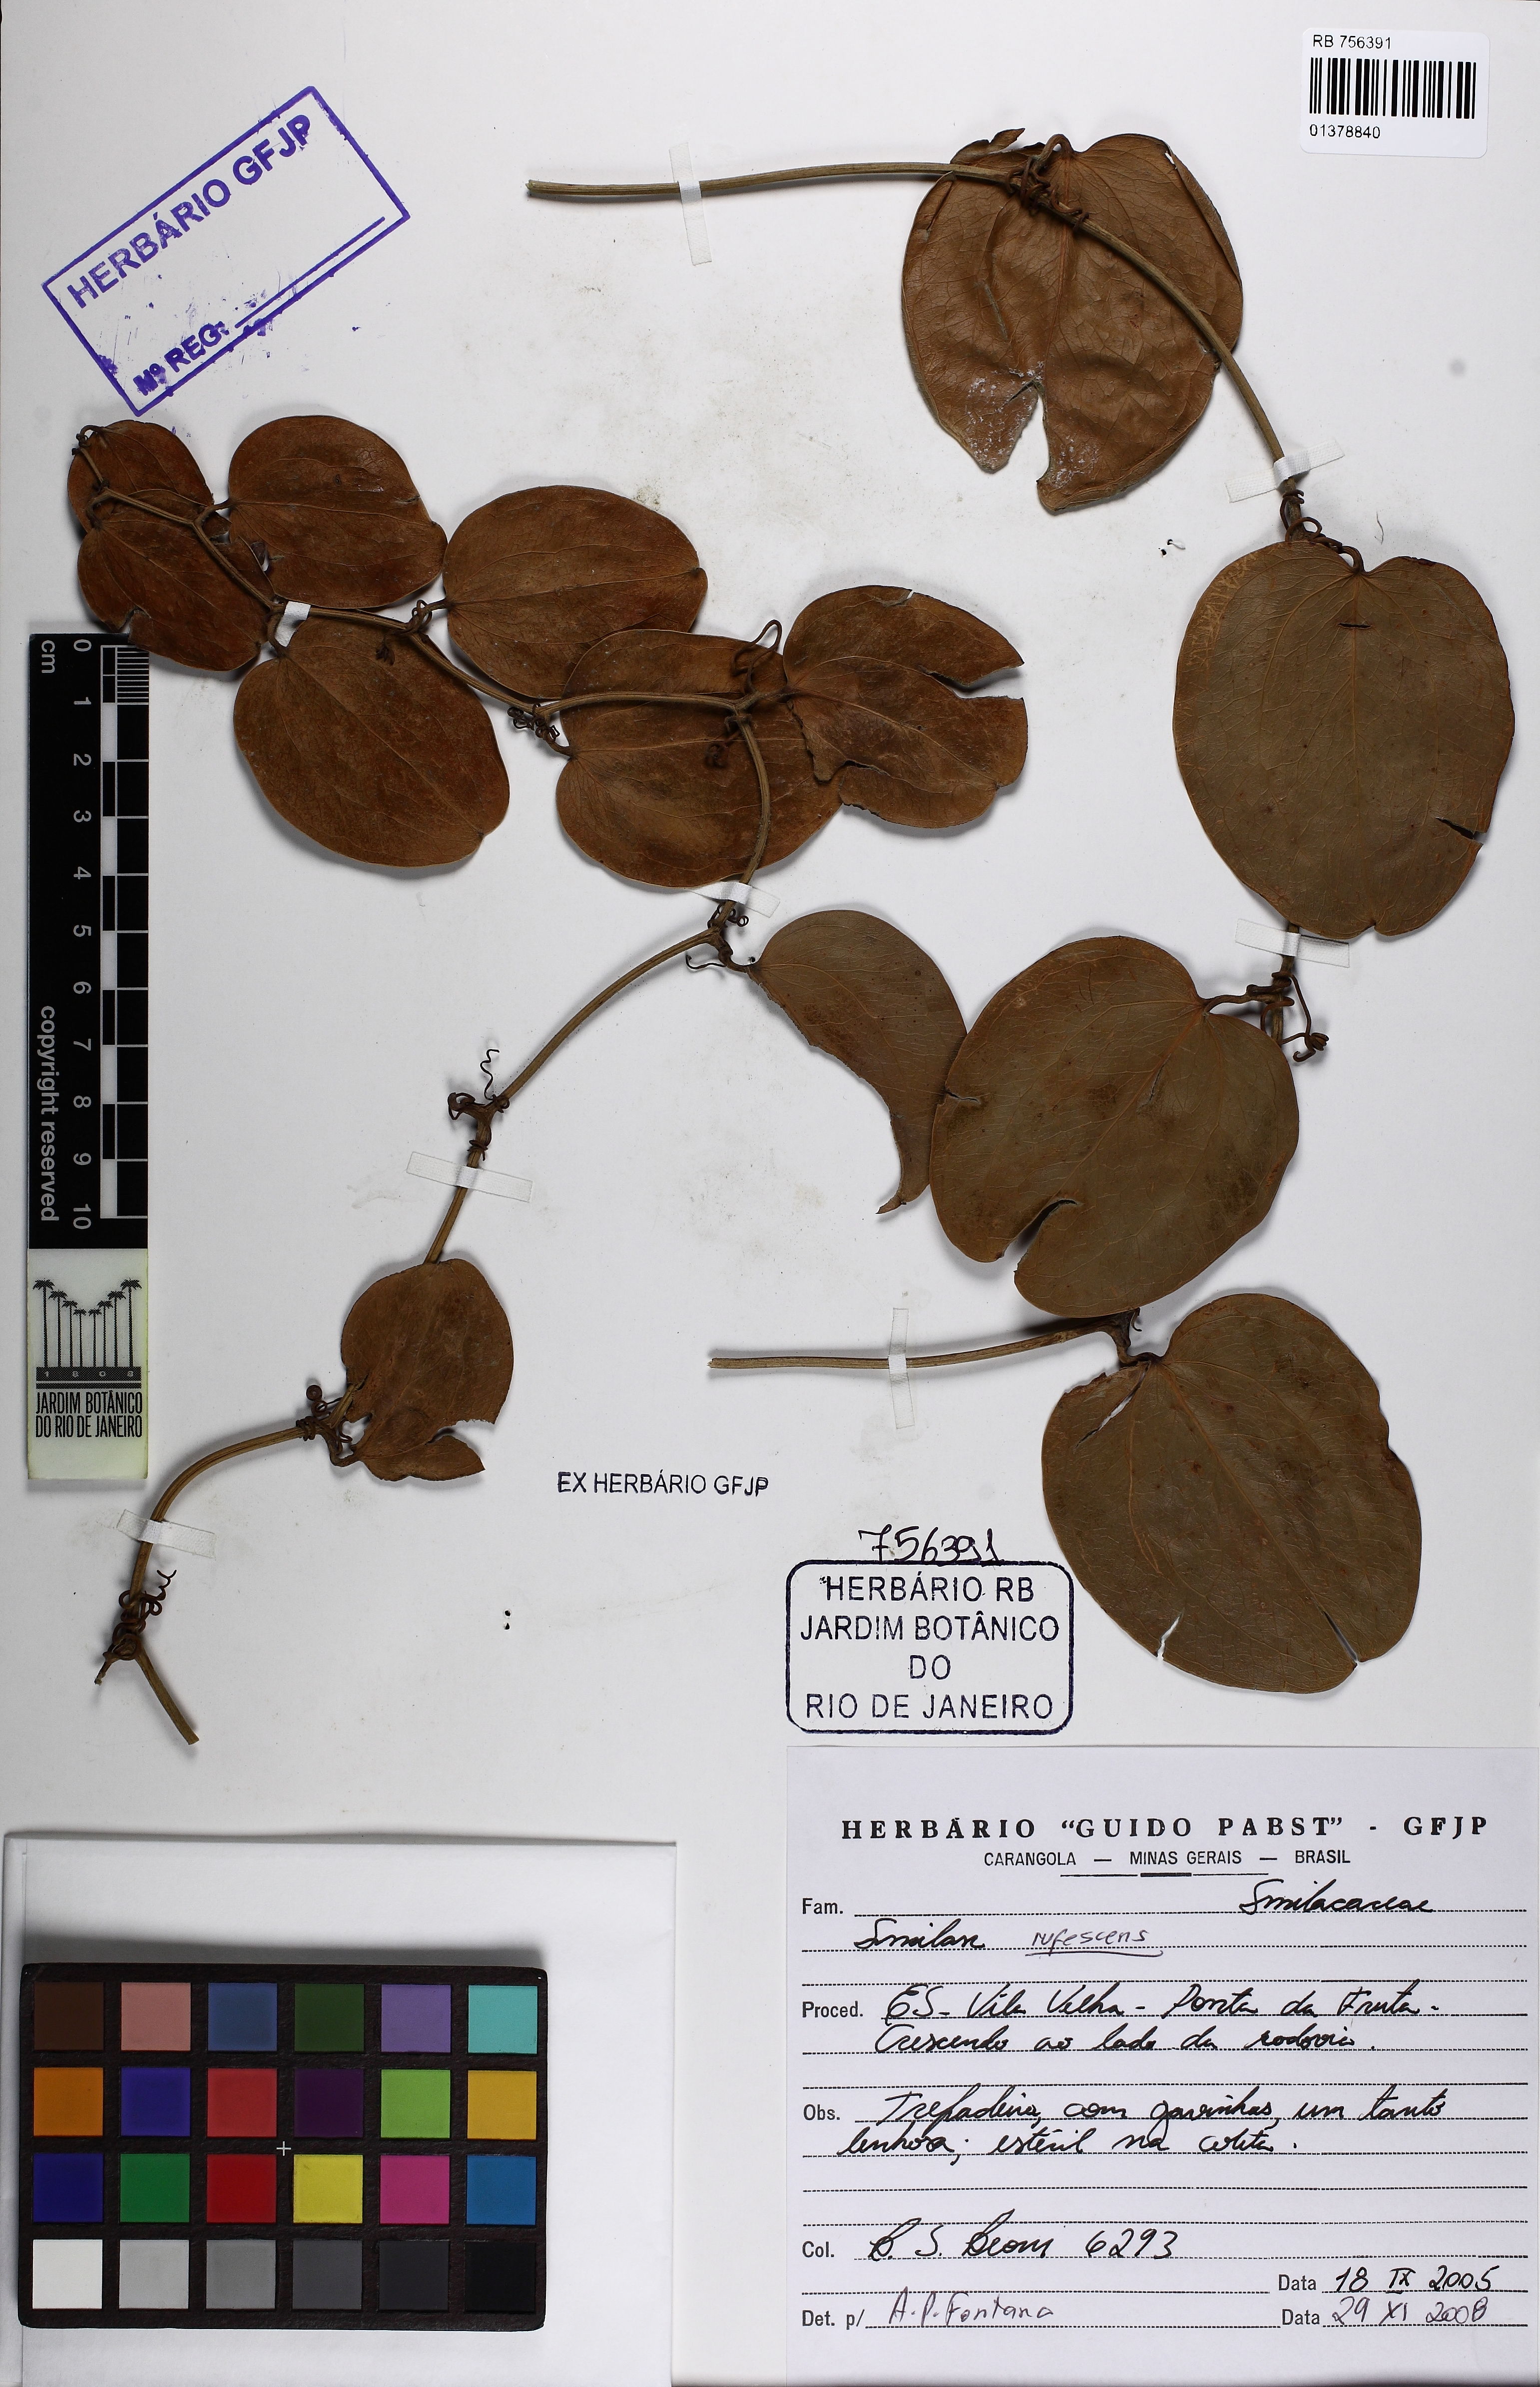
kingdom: Plantae
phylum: Tracheophyta
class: Liliopsida
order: Liliales
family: Smilacaceae
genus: Smilax
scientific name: Smilax rufescens
